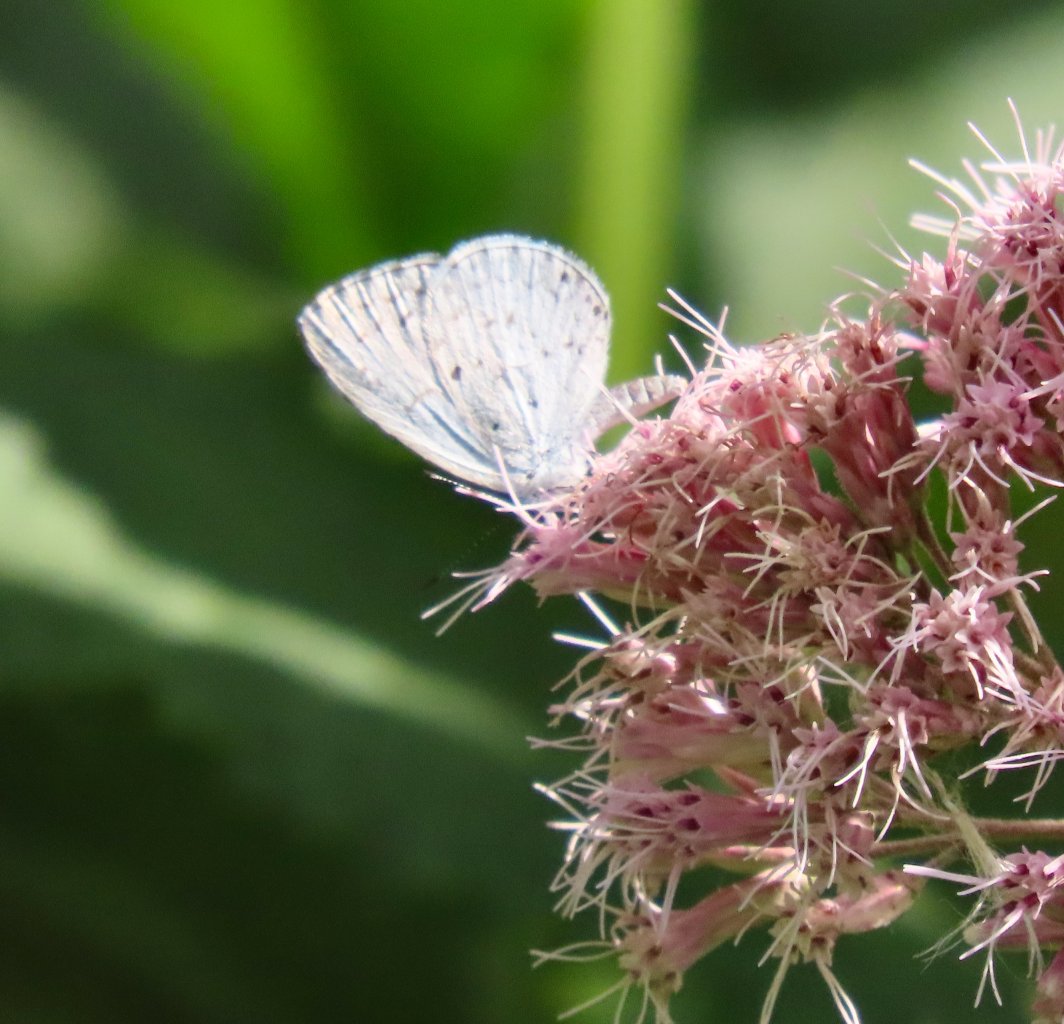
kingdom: Animalia
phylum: Arthropoda
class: Insecta
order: Lepidoptera
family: Lycaenidae
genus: Cyaniris
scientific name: Cyaniris neglecta
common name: Summer Azure
